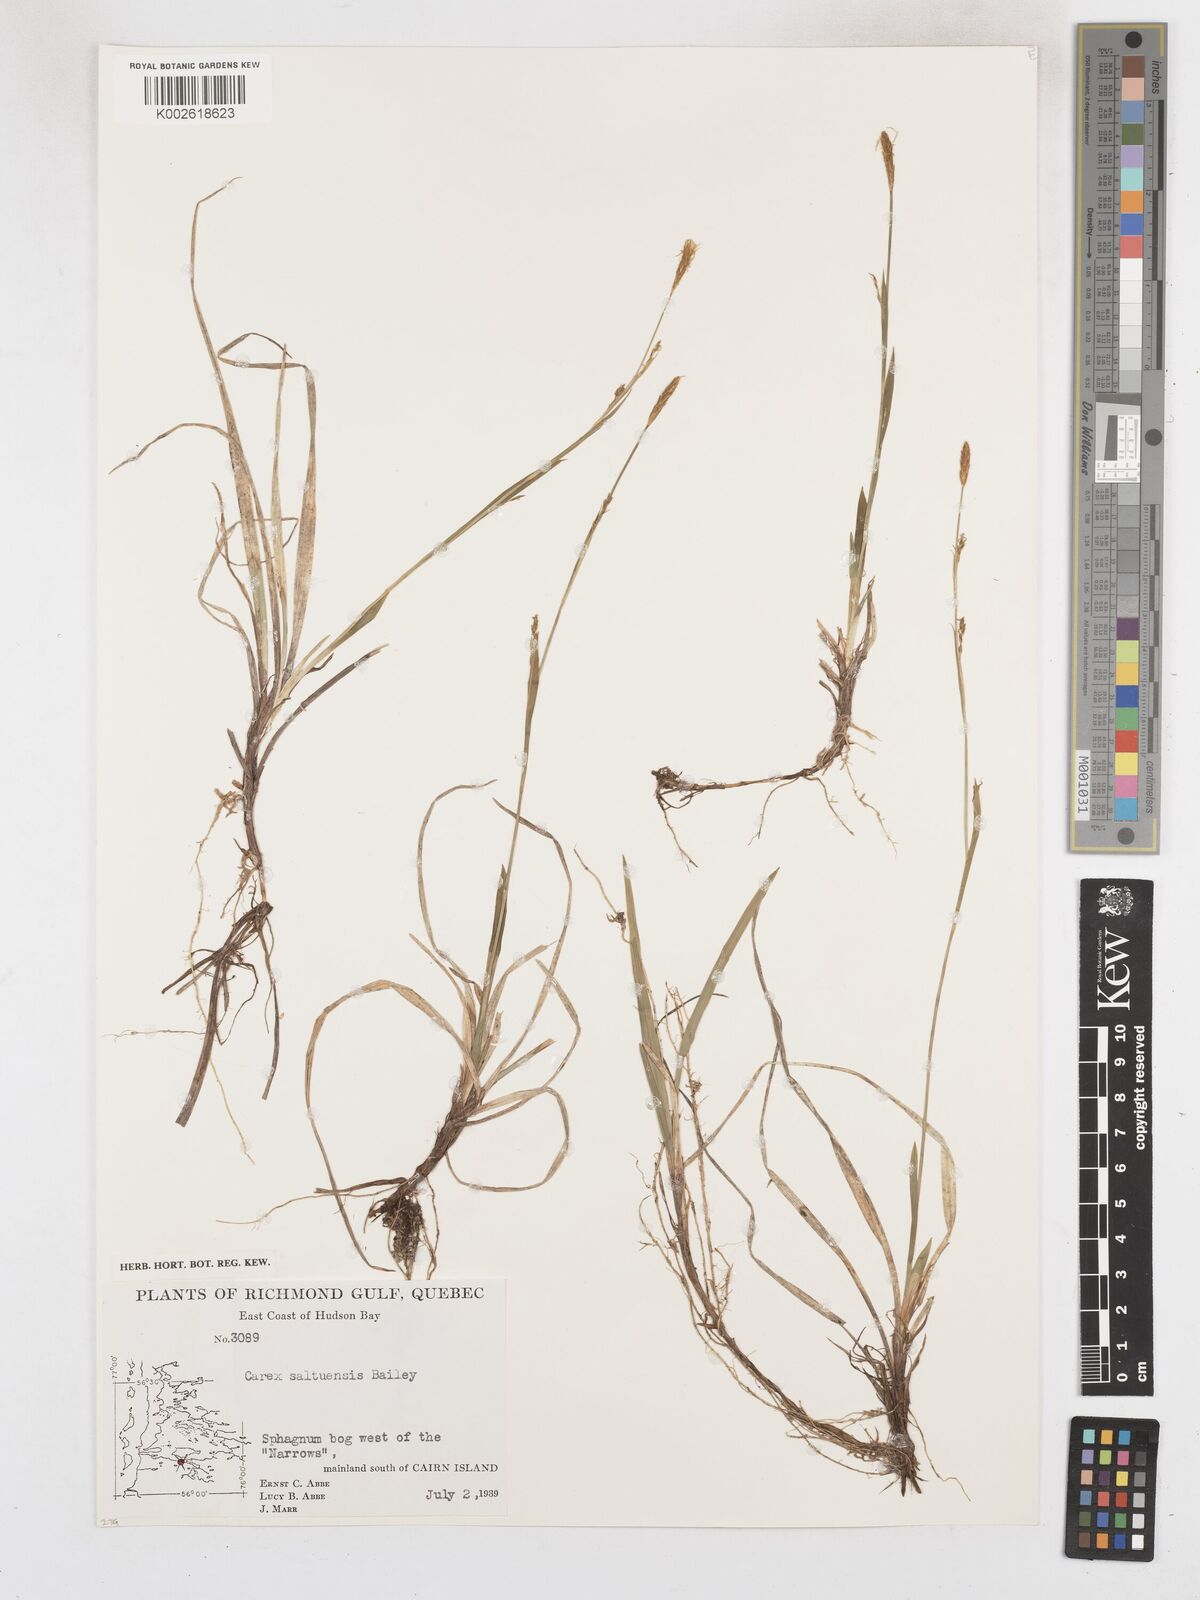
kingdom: Plantae
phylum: Tracheophyta
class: Liliopsida
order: Poales
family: Cyperaceae
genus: Carex
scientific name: Carex vaginata
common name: Sheathed sedge
